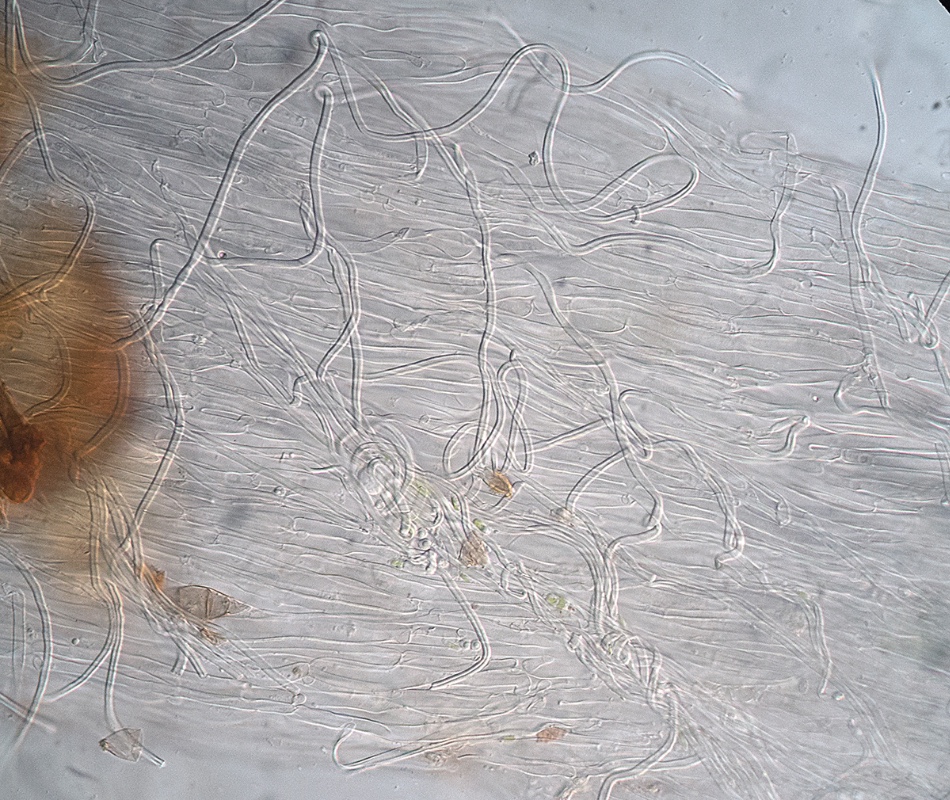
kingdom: Fungi
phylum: Basidiomycota
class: Agaricomycetes
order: Agaricales
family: Clavariaceae
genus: Ramariopsis
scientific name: Ramariopsis
